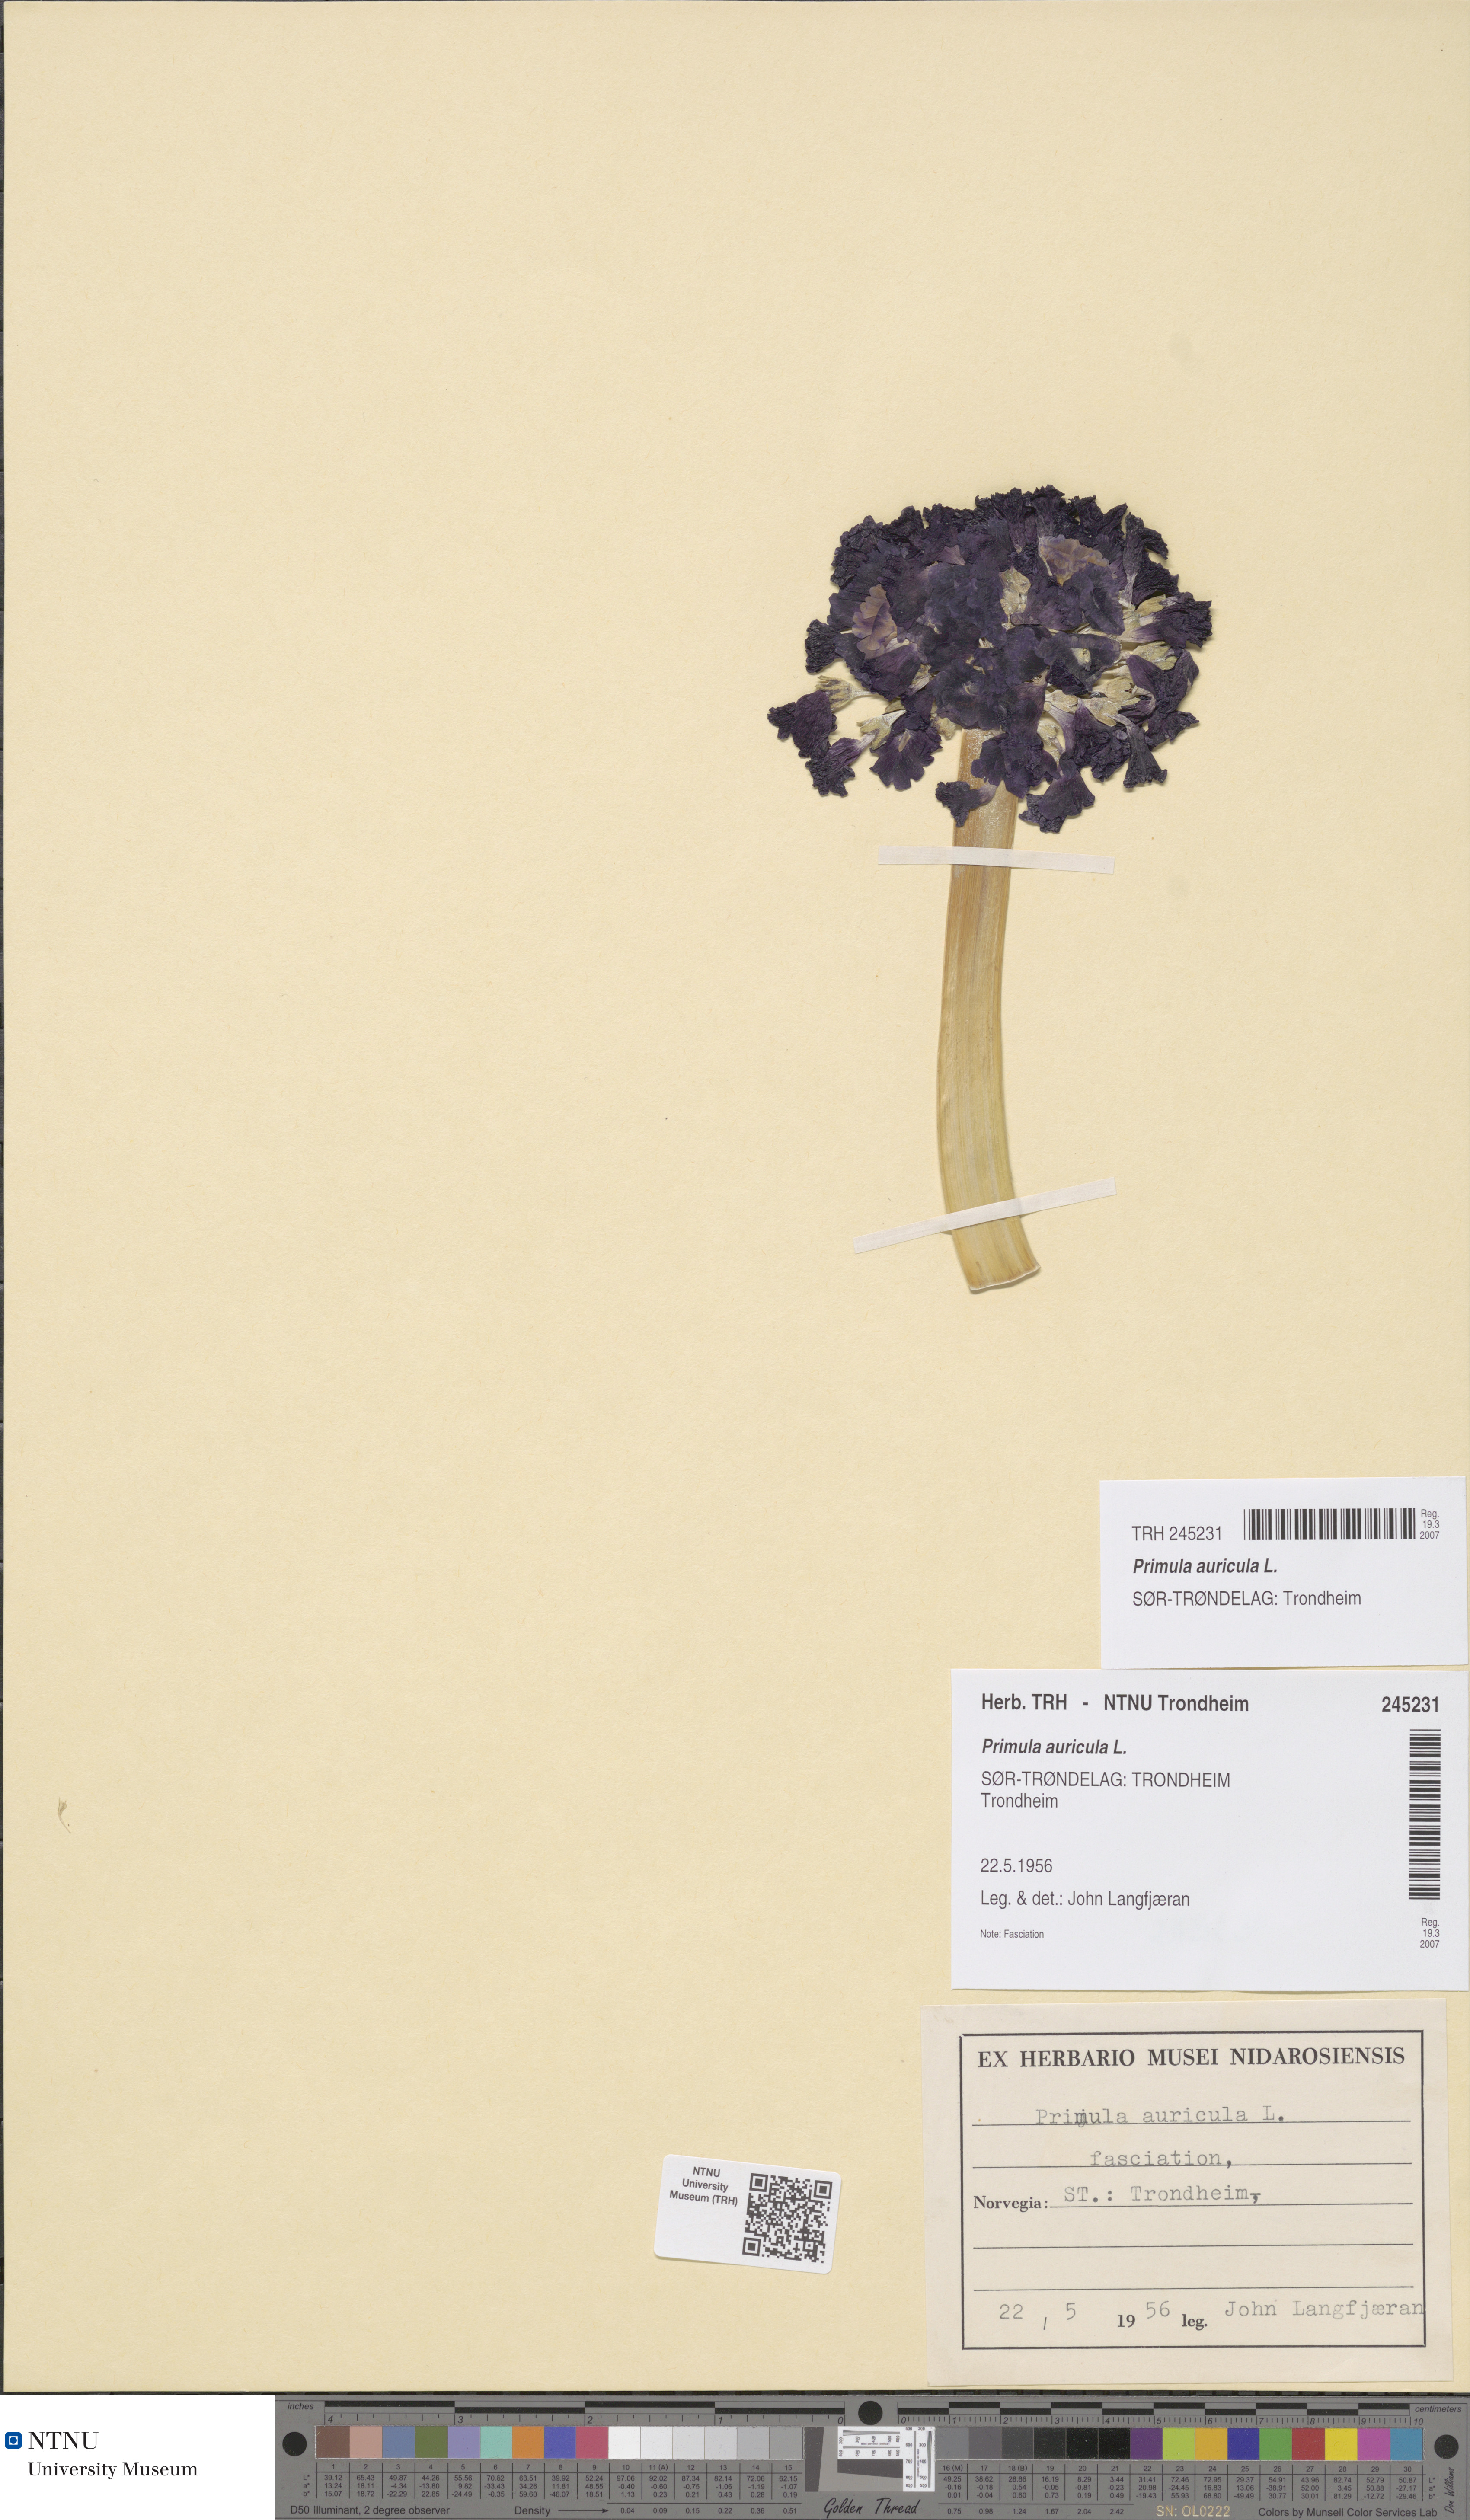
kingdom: Plantae
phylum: Tracheophyta
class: Magnoliopsida
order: Ericales
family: Primulaceae
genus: Primula
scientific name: Primula auricula
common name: Auricula
